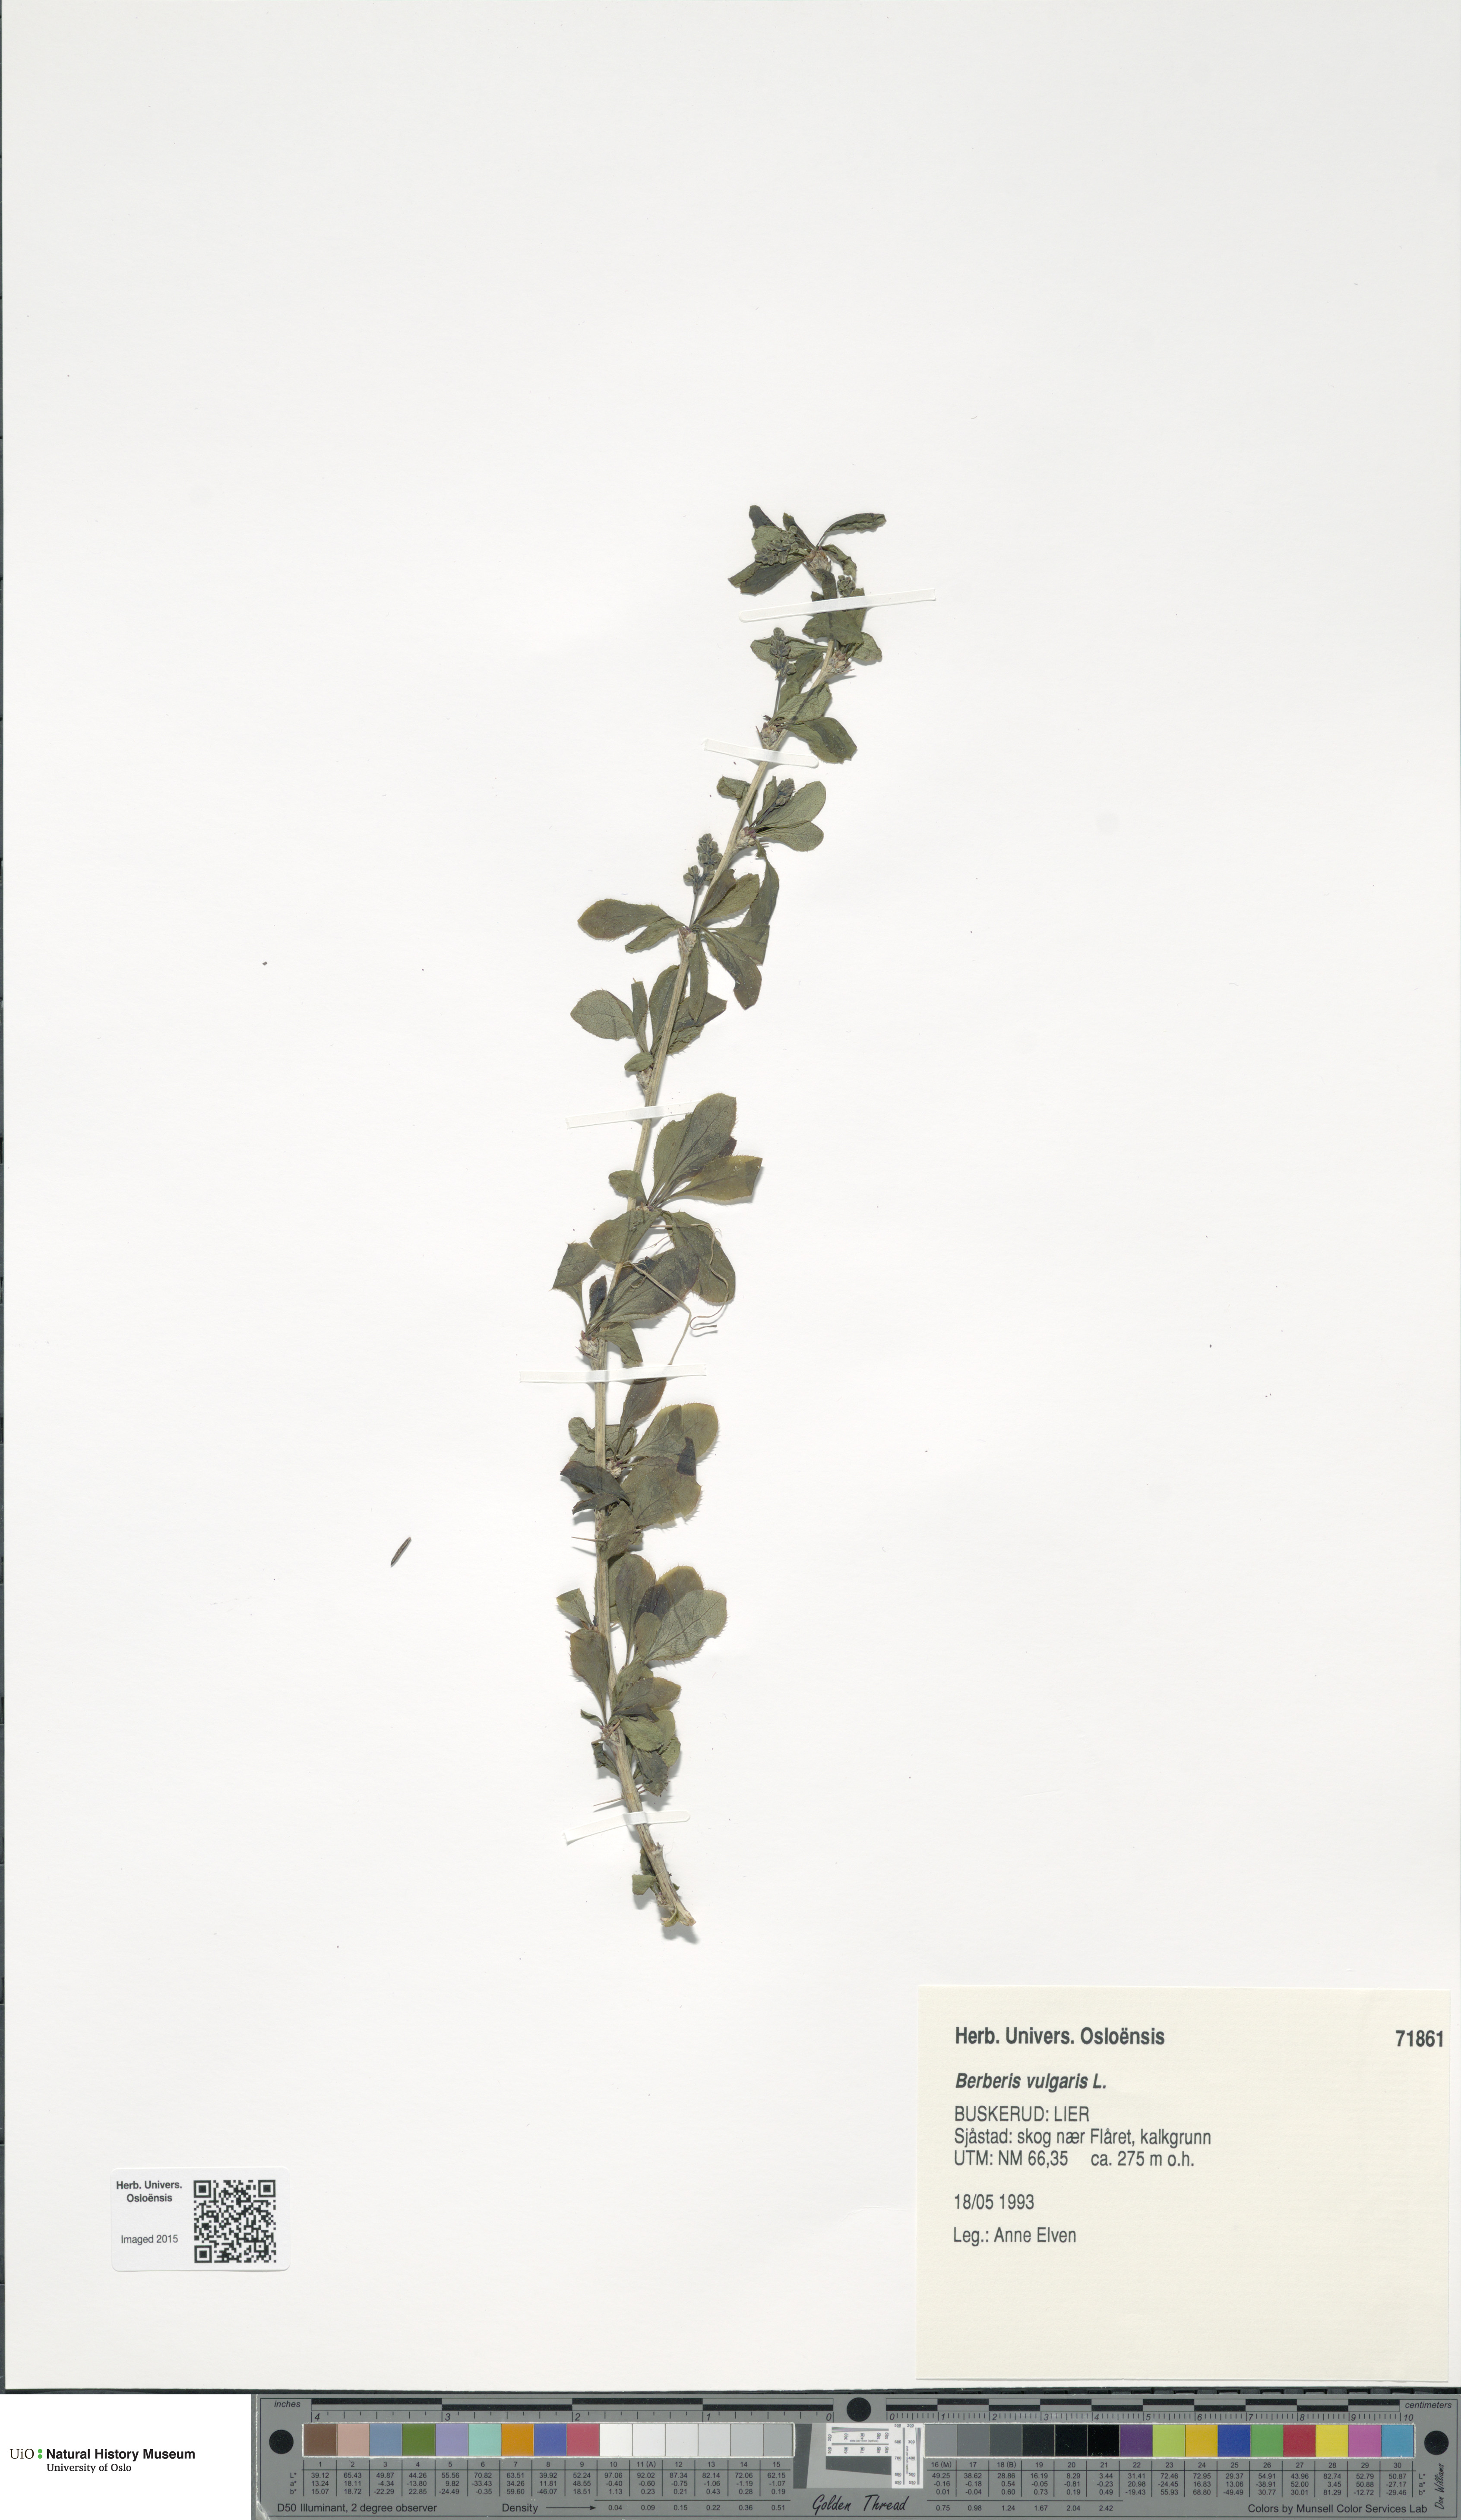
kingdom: Plantae
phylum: Tracheophyta
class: Magnoliopsida
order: Ranunculales
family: Berberidaceae
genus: Berberis
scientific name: Berberis vulgaris
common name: Barberry
